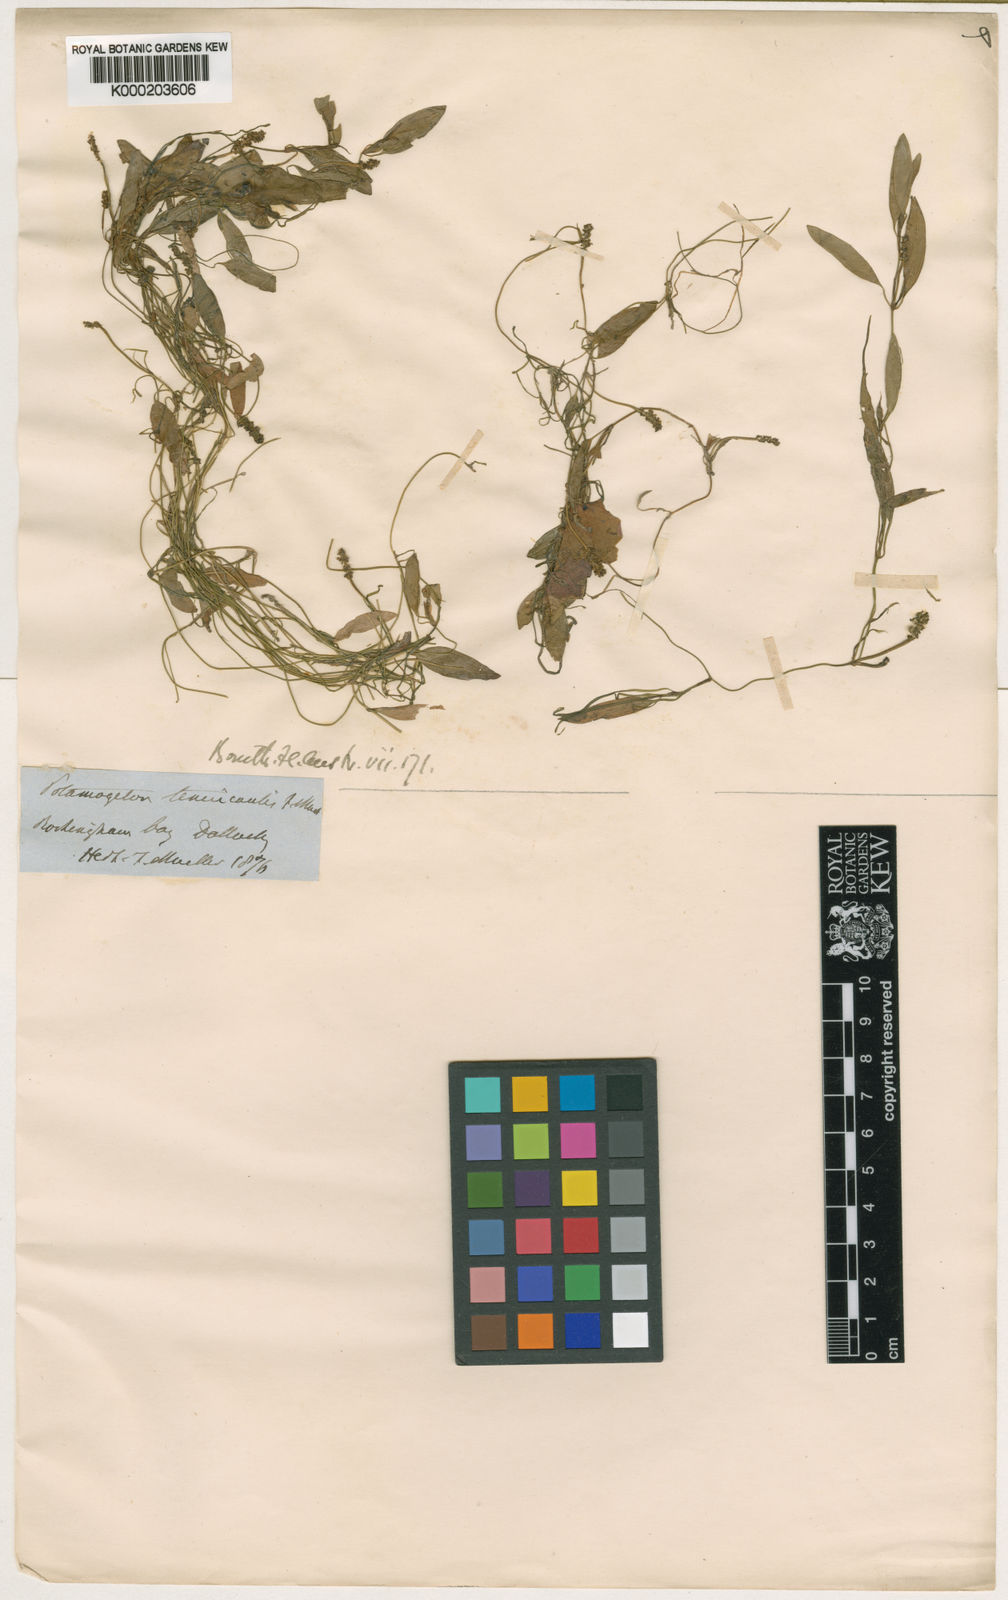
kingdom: Plantae
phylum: Tracheophyta
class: Liliopsida
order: Alismatales
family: Potamogetonaceae
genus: Potamogeton
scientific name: Potamogeton octandrus
